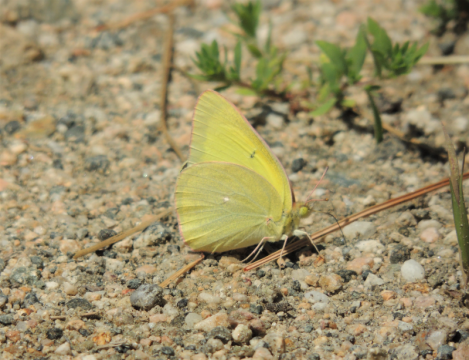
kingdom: Animalia
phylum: Arthropoda
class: Insecta
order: Lepidoptera
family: Pieridae
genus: Colias
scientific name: Colias alexandra
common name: Queen Alexandra's Sulphur
